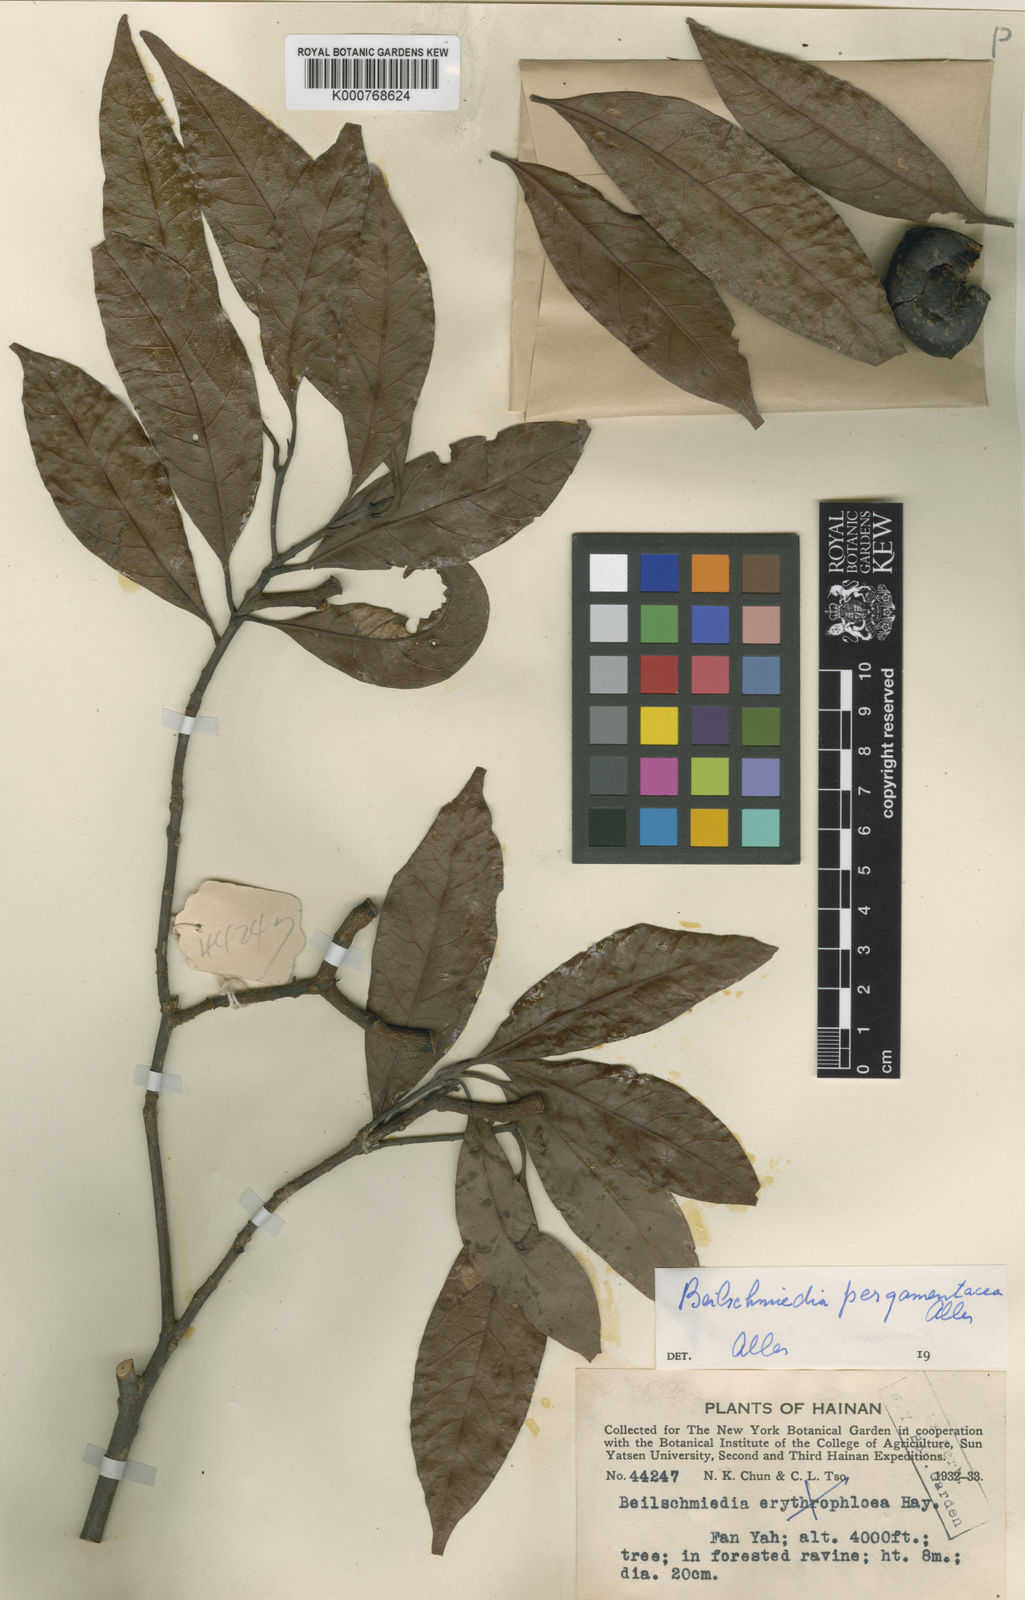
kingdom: Plantae
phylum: Tracheophyta
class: Magnoliopsida
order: Laurales
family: Lauraceae
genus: Beilschmiedia
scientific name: Beilschmiedia pergamentacea
